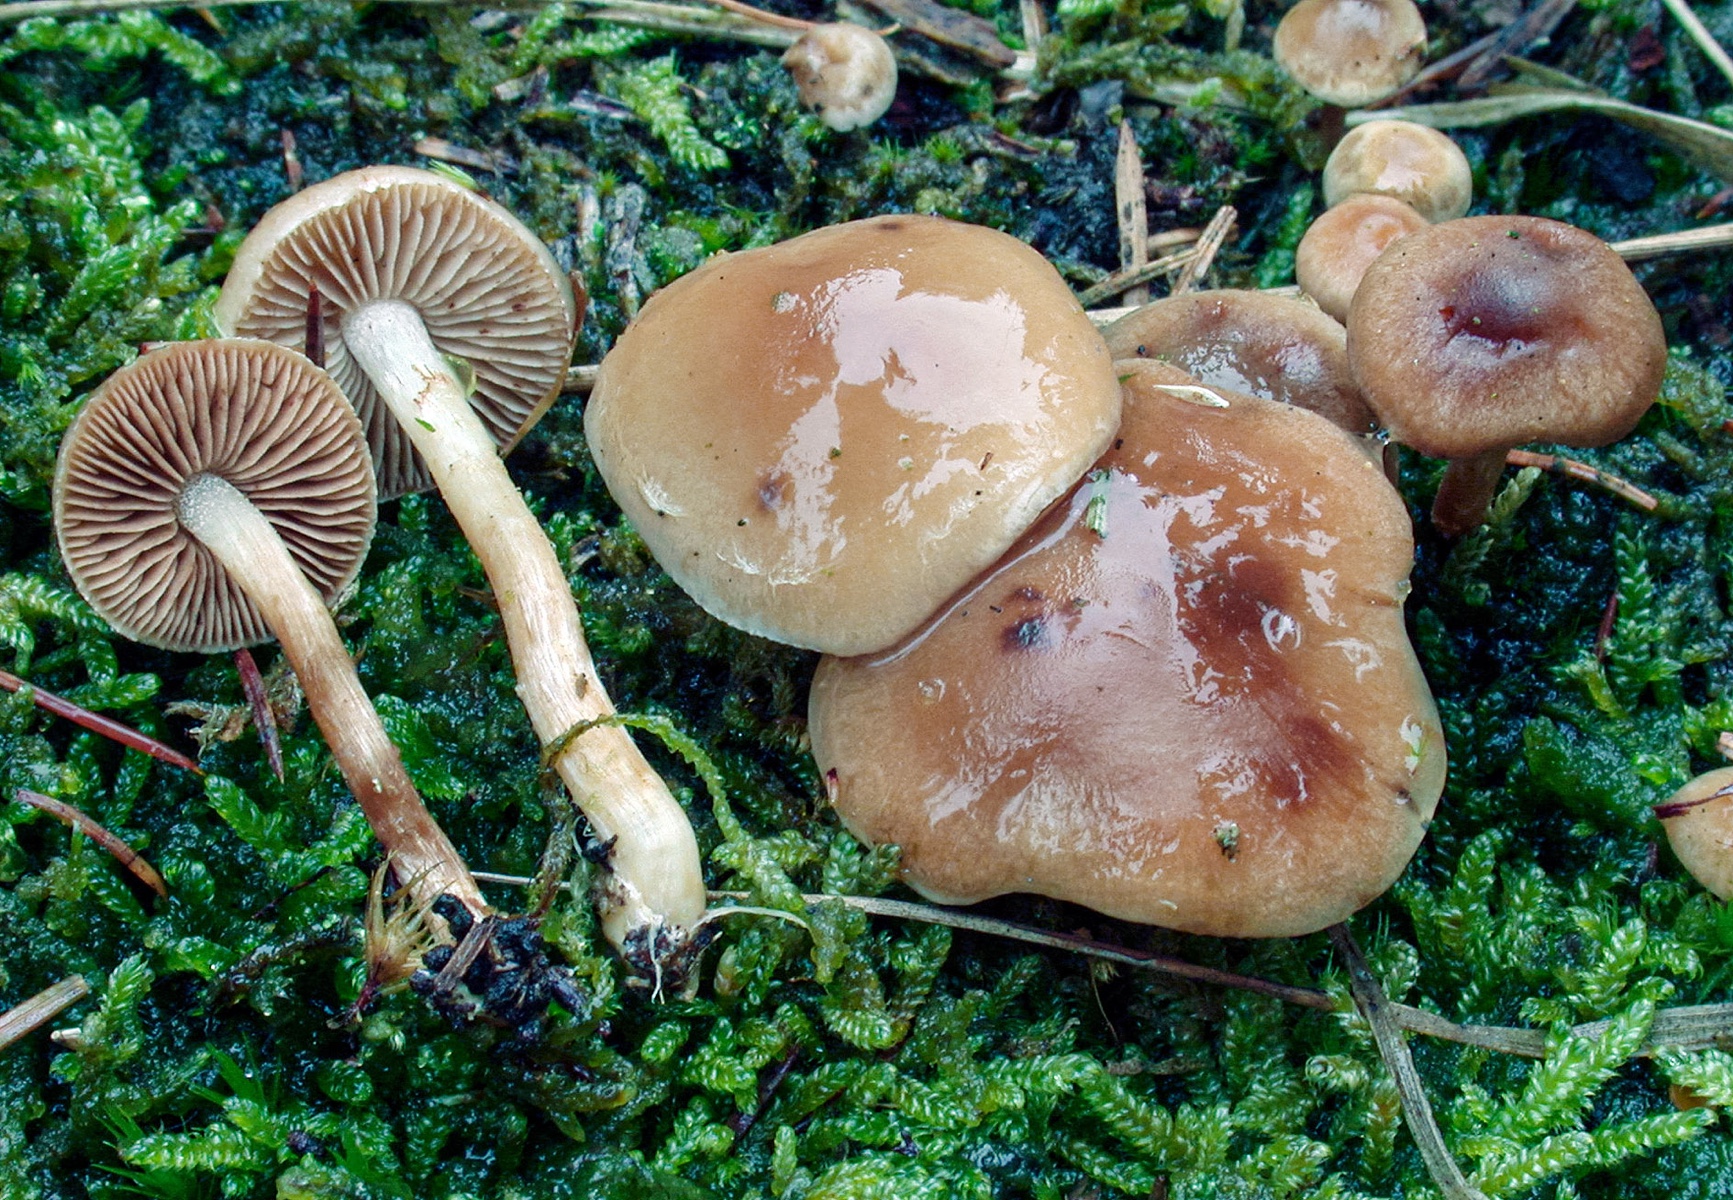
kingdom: Fungi
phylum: Basidiomycota
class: Agaricomycetes
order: Agaricales
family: Hymenogastraceae
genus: Hebeloma
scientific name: Hebeloma birrus
